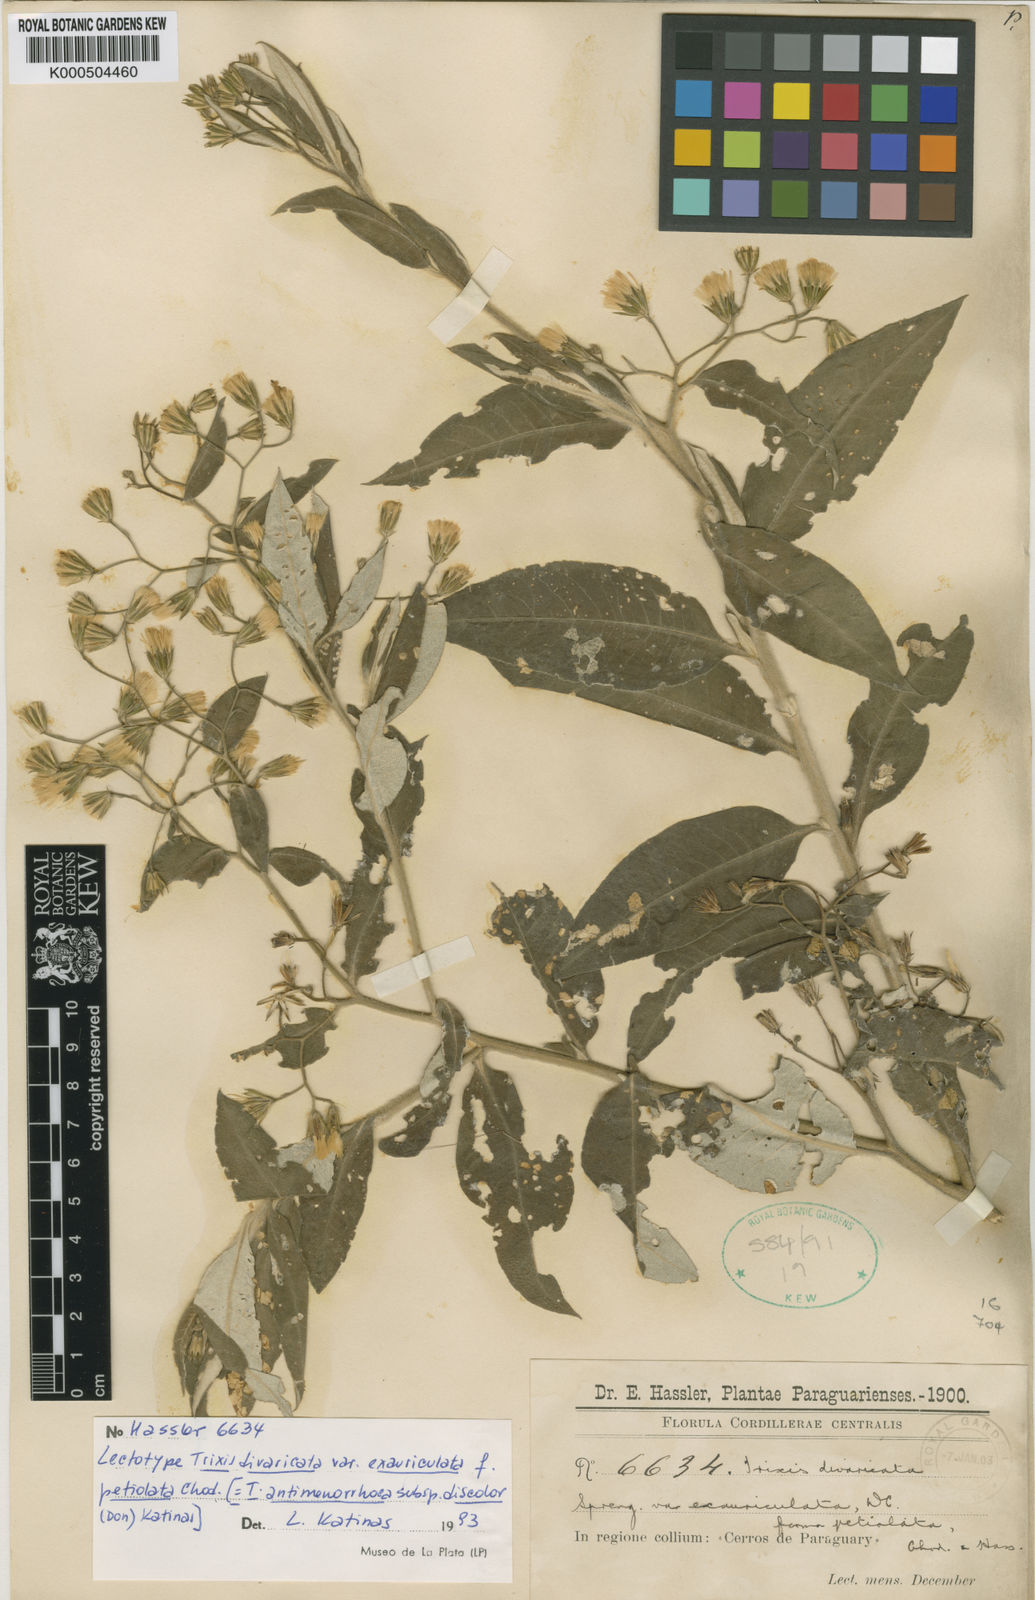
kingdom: Plantae
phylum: Tracheophyta
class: Magnoliopsida
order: Asterales
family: Asteraceae
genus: Trixis
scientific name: Trixis divaricata
